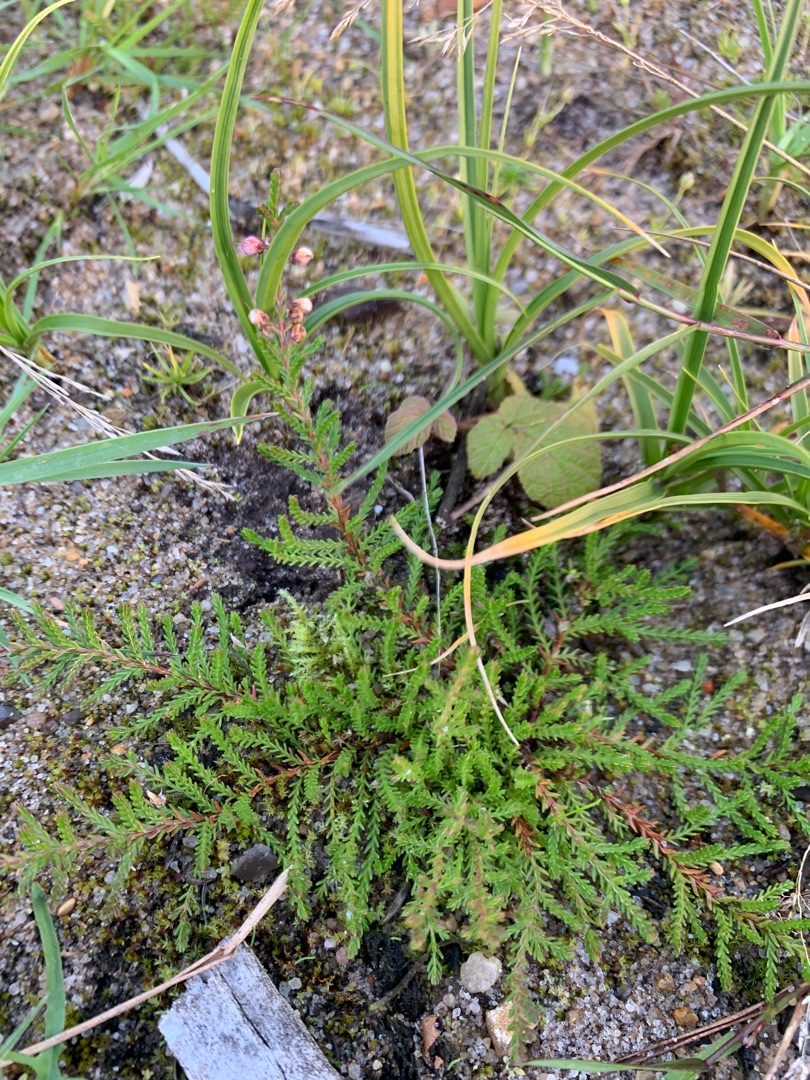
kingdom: Plantae
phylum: Tracheophyta
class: Magnoliopsida
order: Ericales
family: Ericaceae
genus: Calluna
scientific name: Calluna vulgaris
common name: Hedelyng
